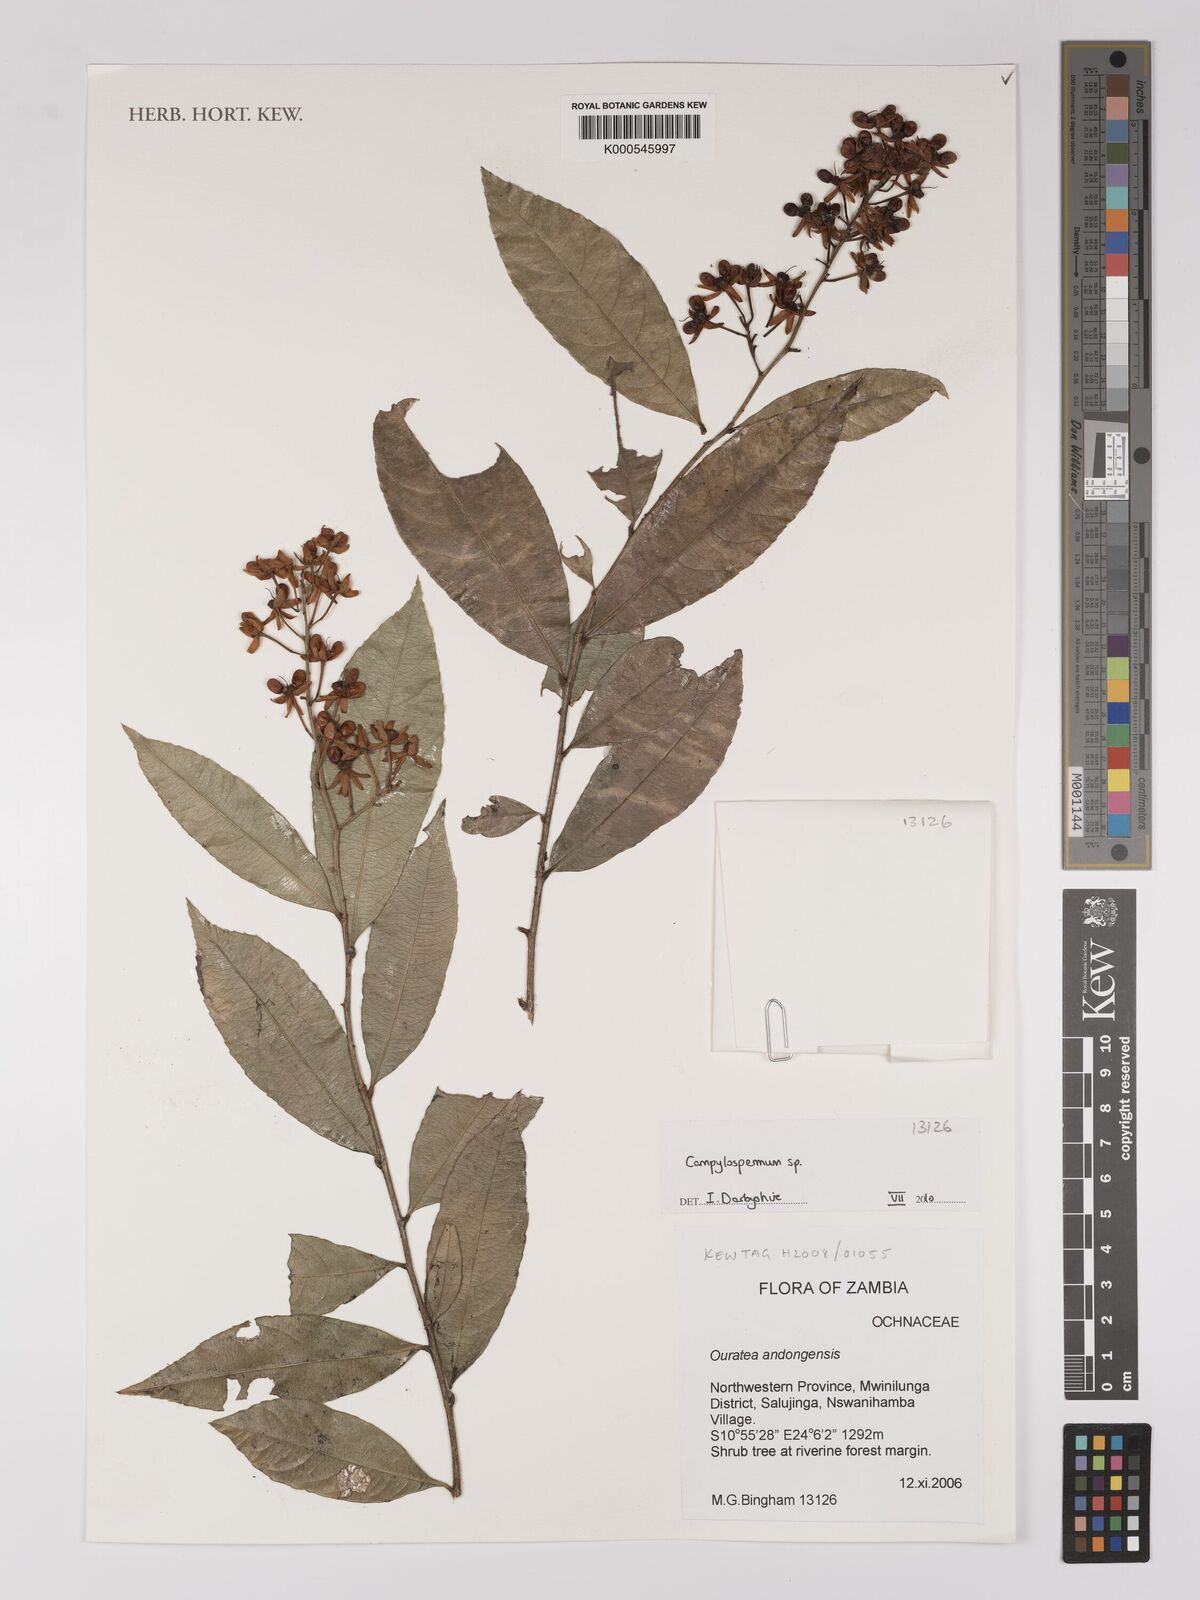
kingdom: Plantae
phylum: Tracheophyta
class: Magnoliopsida
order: Malpighiales
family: Ochnaceae
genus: Campylospermum
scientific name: Campylospermum
